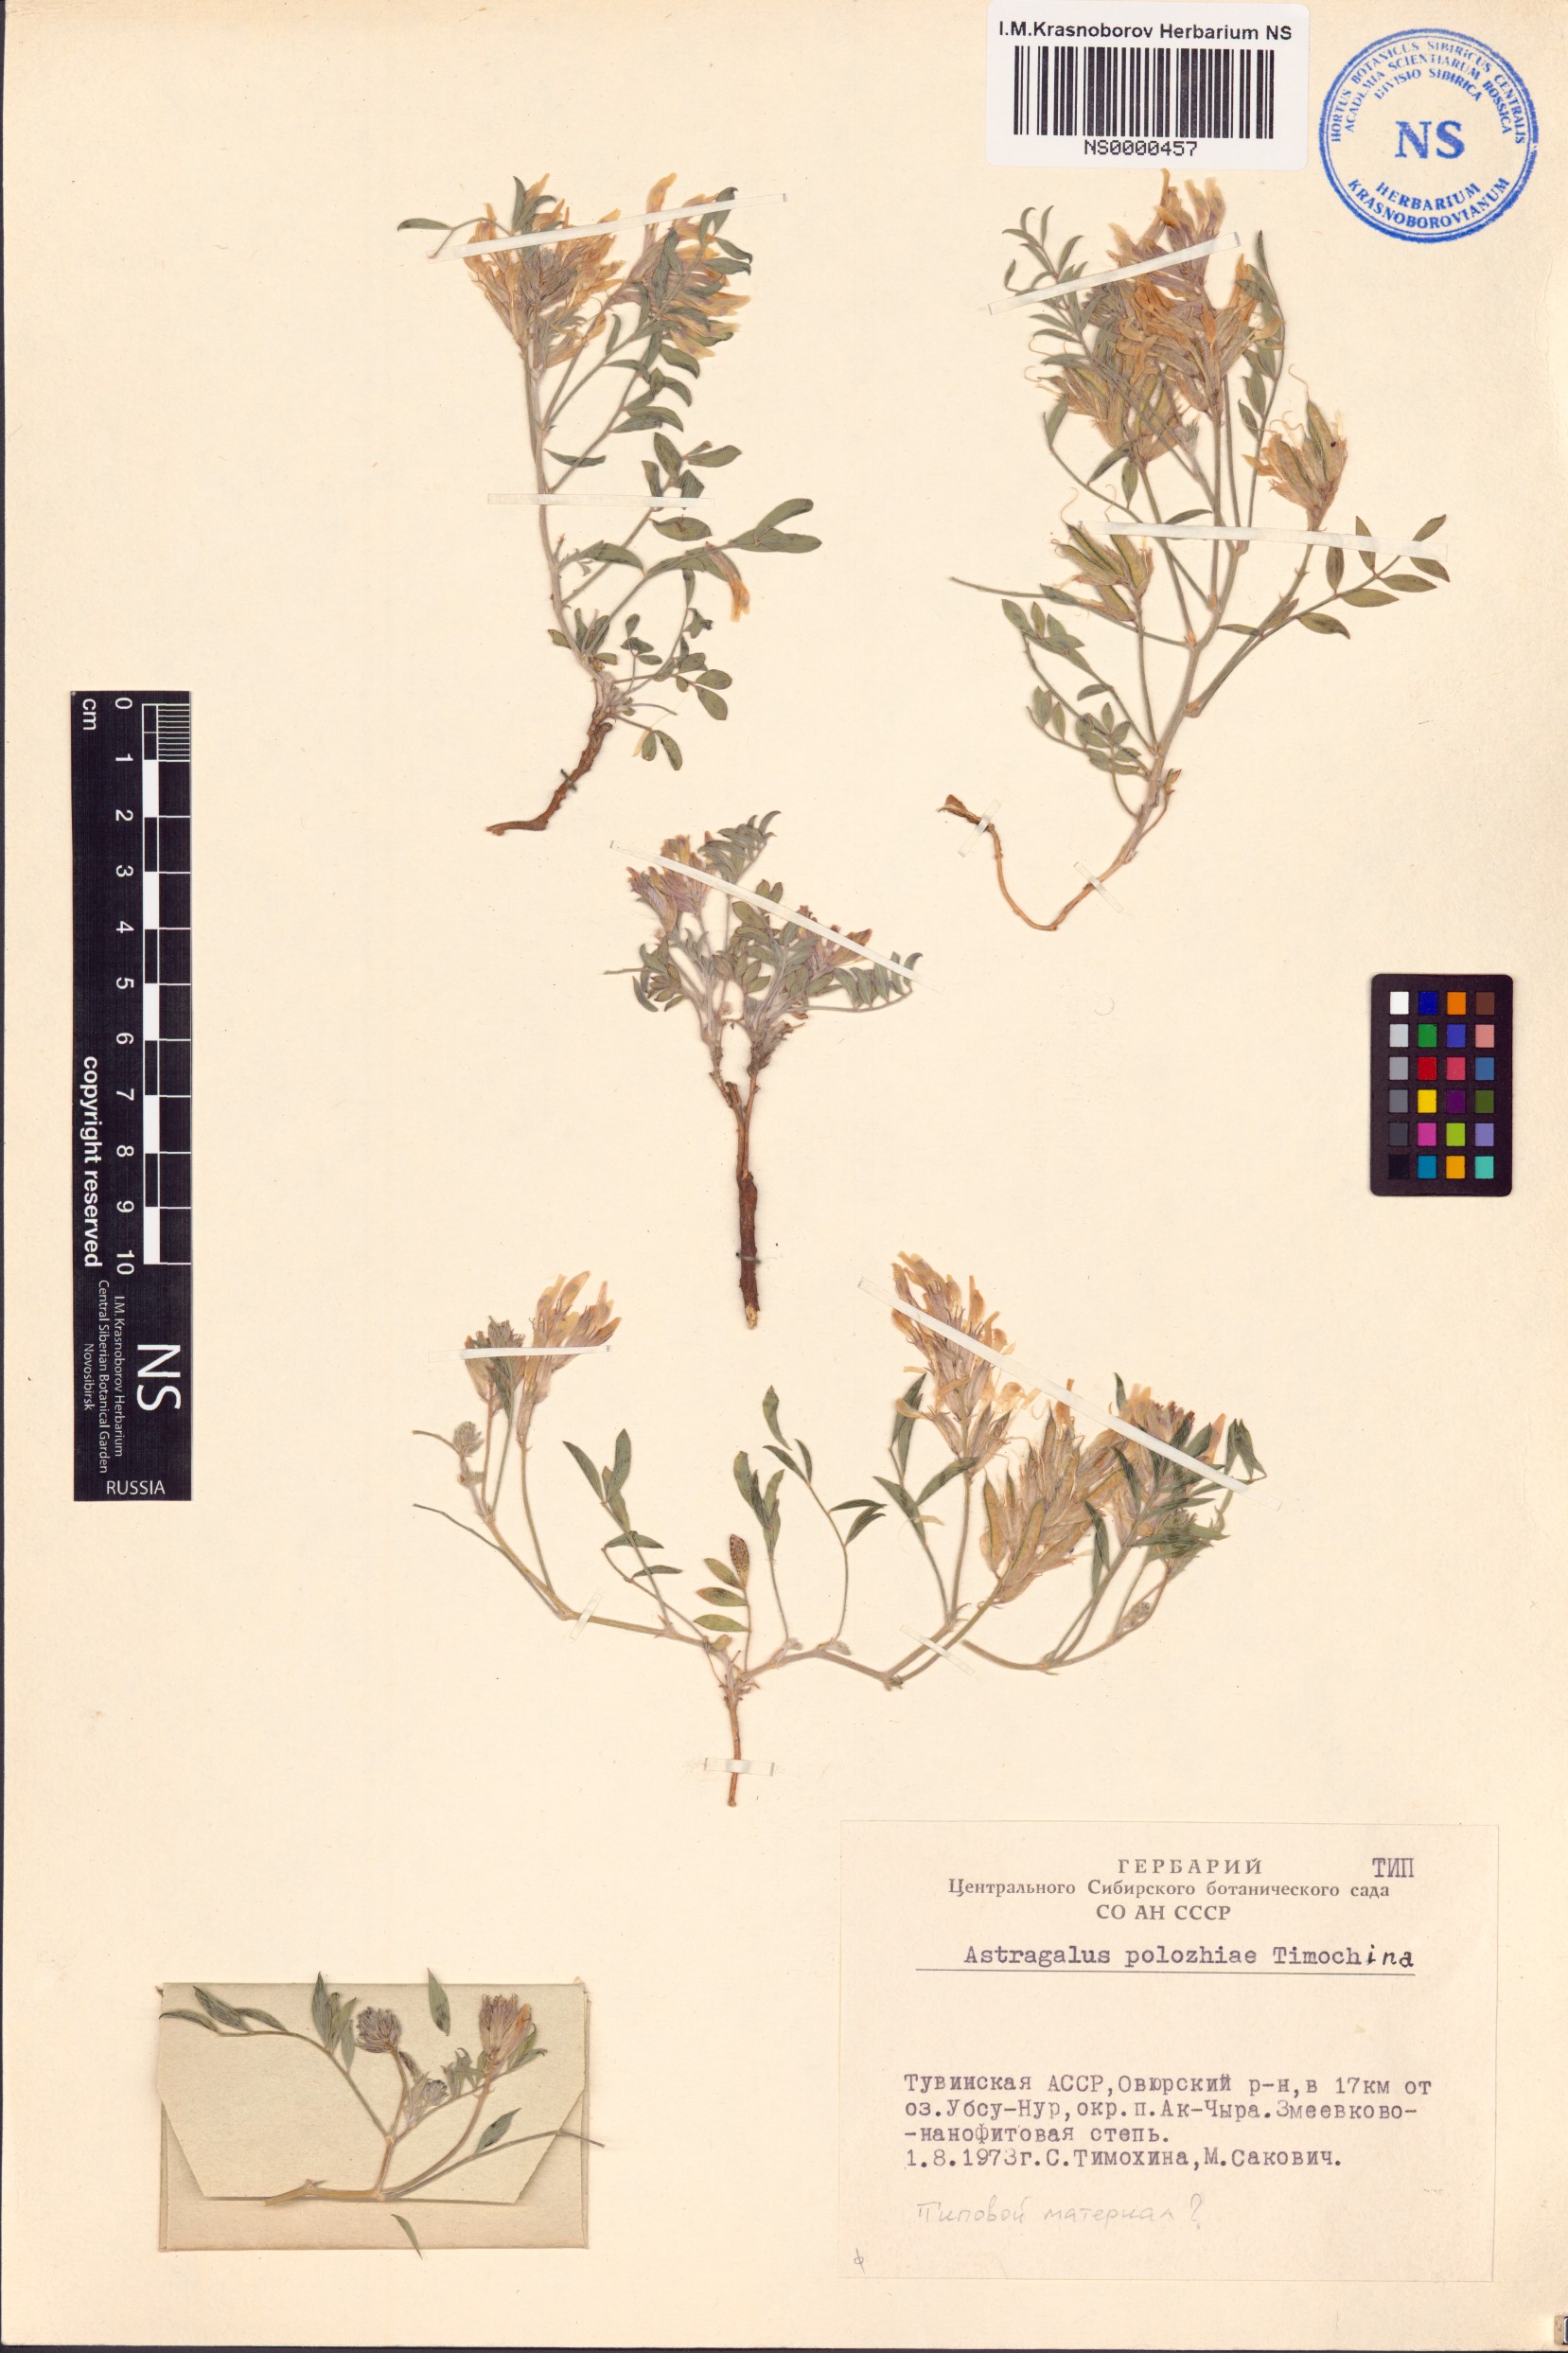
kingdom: Plantae
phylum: Tracheophyta
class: Magnoliopsida
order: Fabales
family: Fabaceae
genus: Astragalus
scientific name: Astragalus polozhiae
